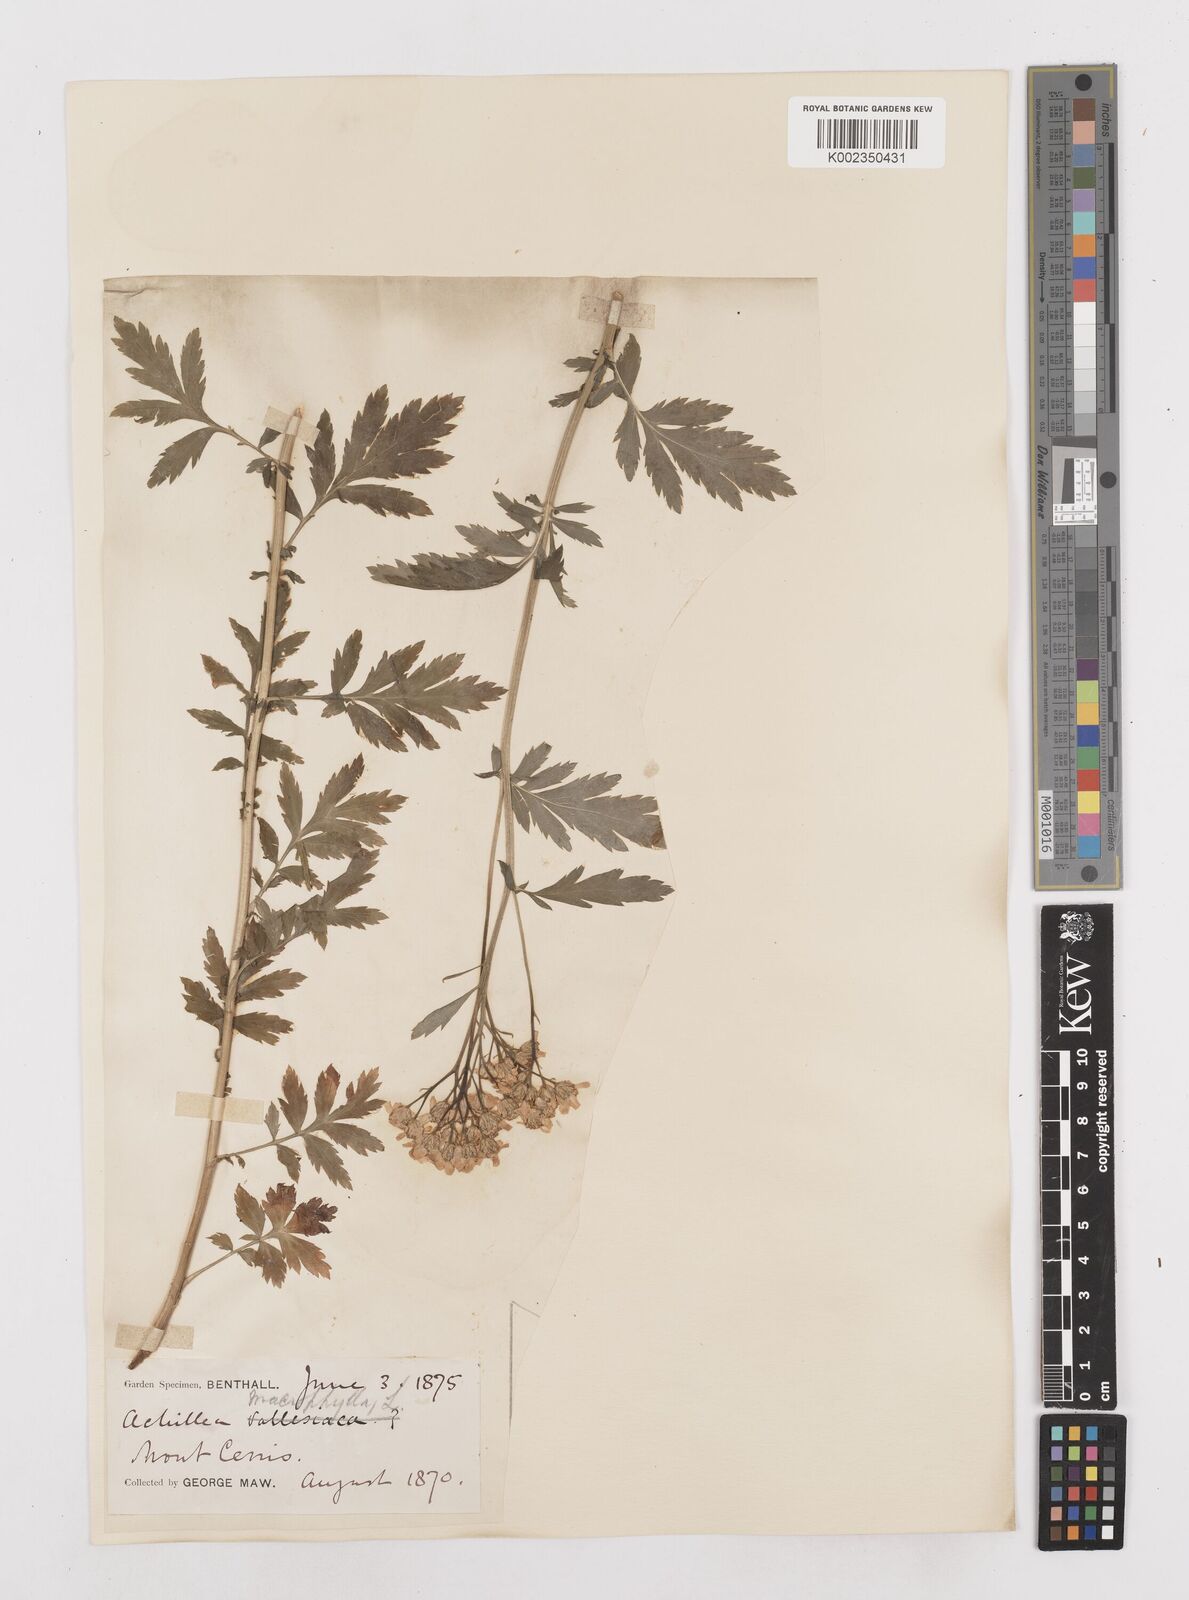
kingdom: Plantae
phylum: Tracheophyta
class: Magnoliopsida
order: Asterales
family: Asteraceae
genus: Achillea
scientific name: Achillea macrophylla
